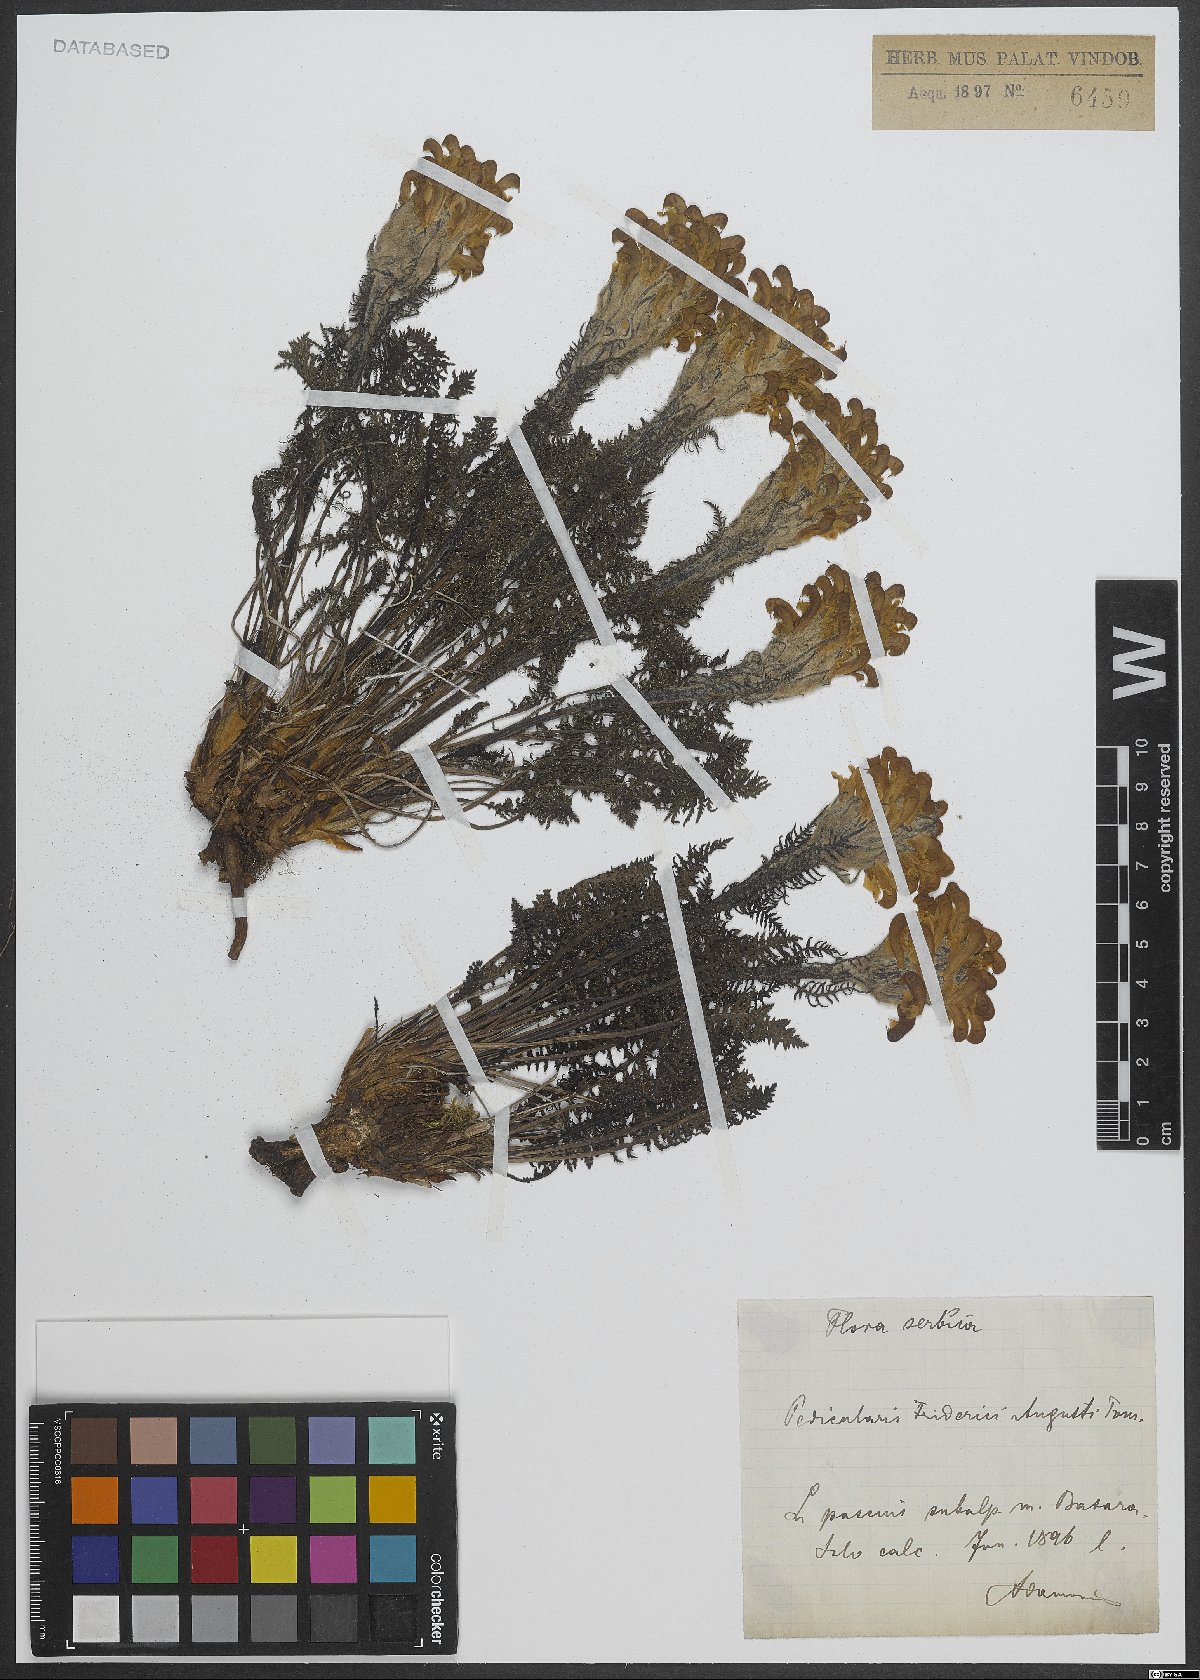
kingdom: Plantae
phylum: Tracheophyta
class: Magnoliopsida
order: Lamiales
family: Orobanchaceae
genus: Pedicularis
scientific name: Pedicularis friderici-augusti
